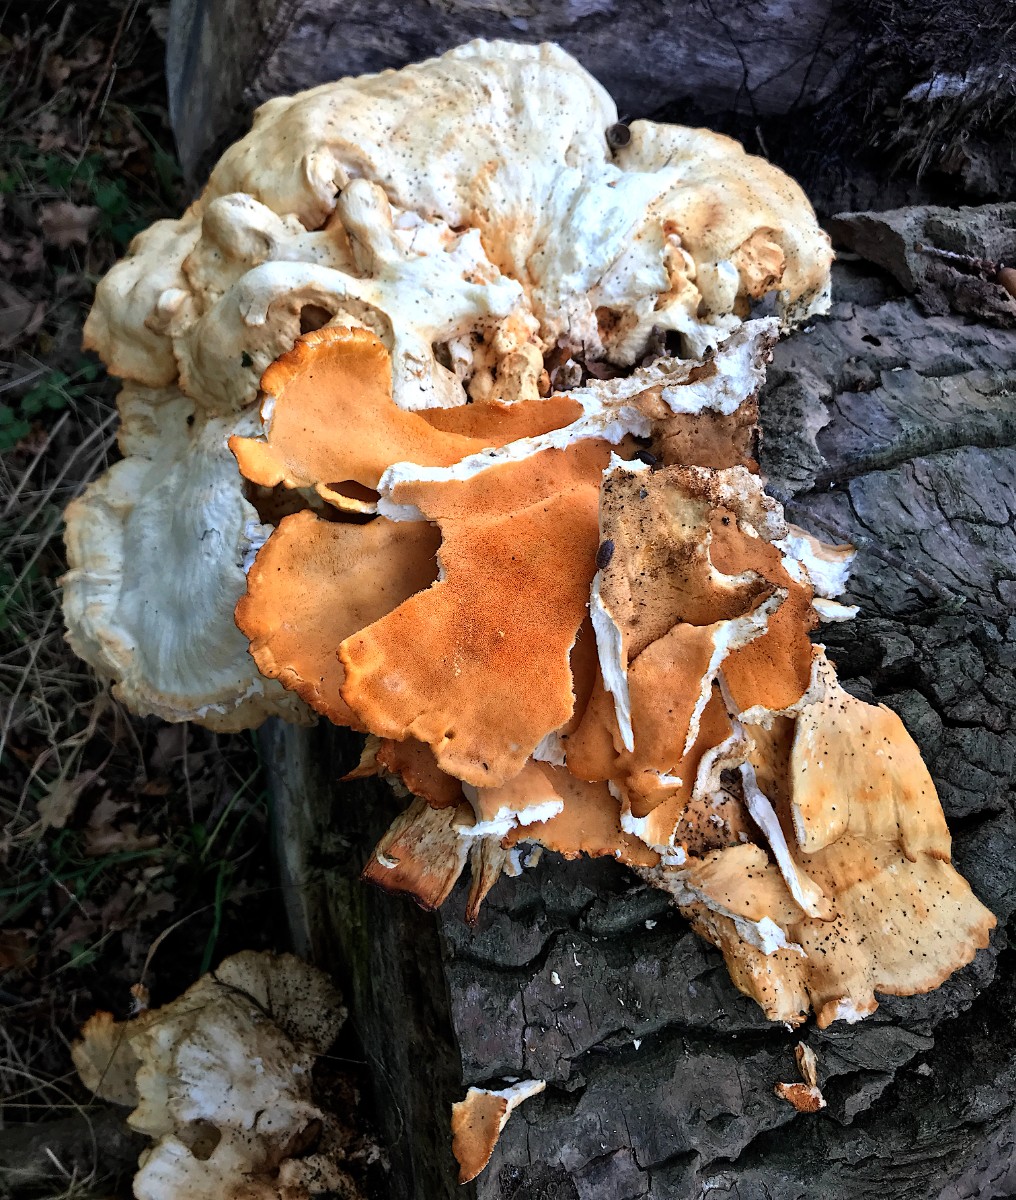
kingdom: Fungi
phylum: Basidiomycota
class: Agaricomycetes
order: Polyporales
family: Laetiporaceae
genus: Laetiporus
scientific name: Laetiporus sulphureus
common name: svovlporesvamp
